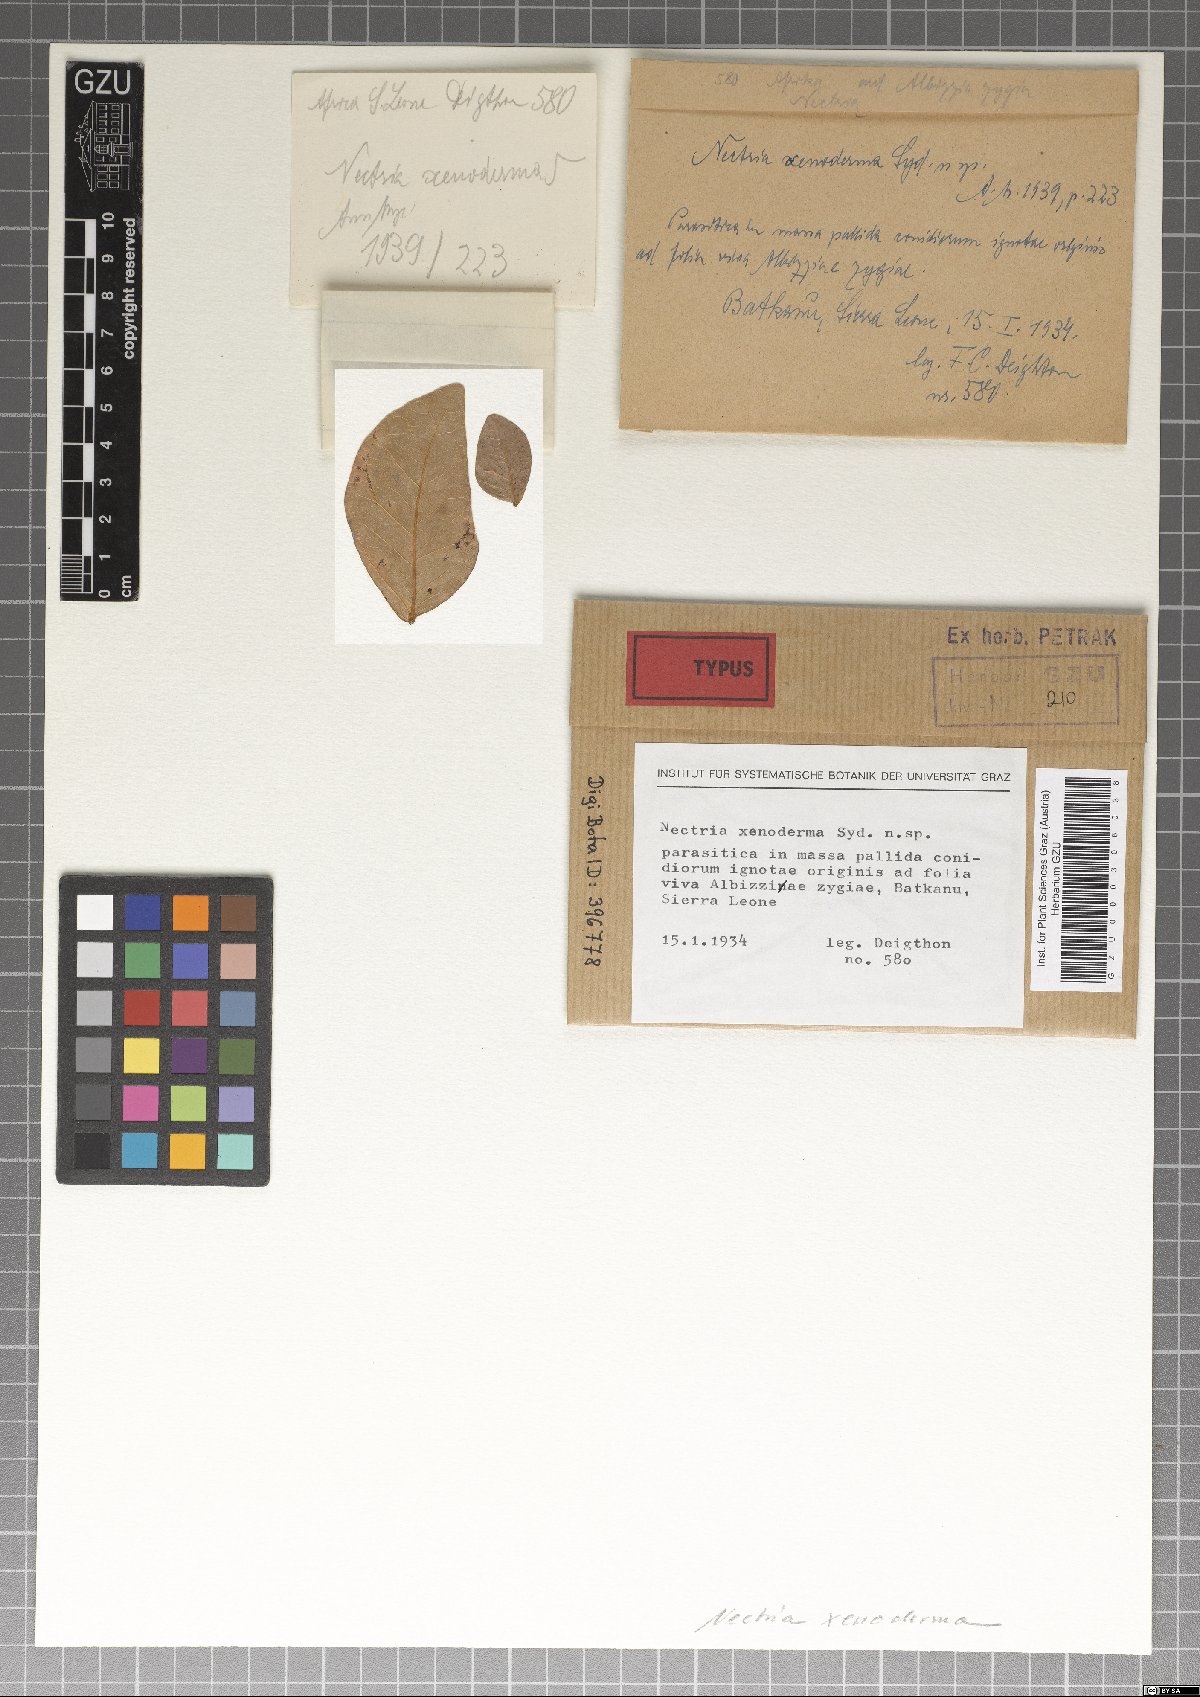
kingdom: Fungi
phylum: Ascomycota
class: Sordariomycetes
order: Hypocreales
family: Nectriaceae
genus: Nectria
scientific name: Nectria xenoderma
